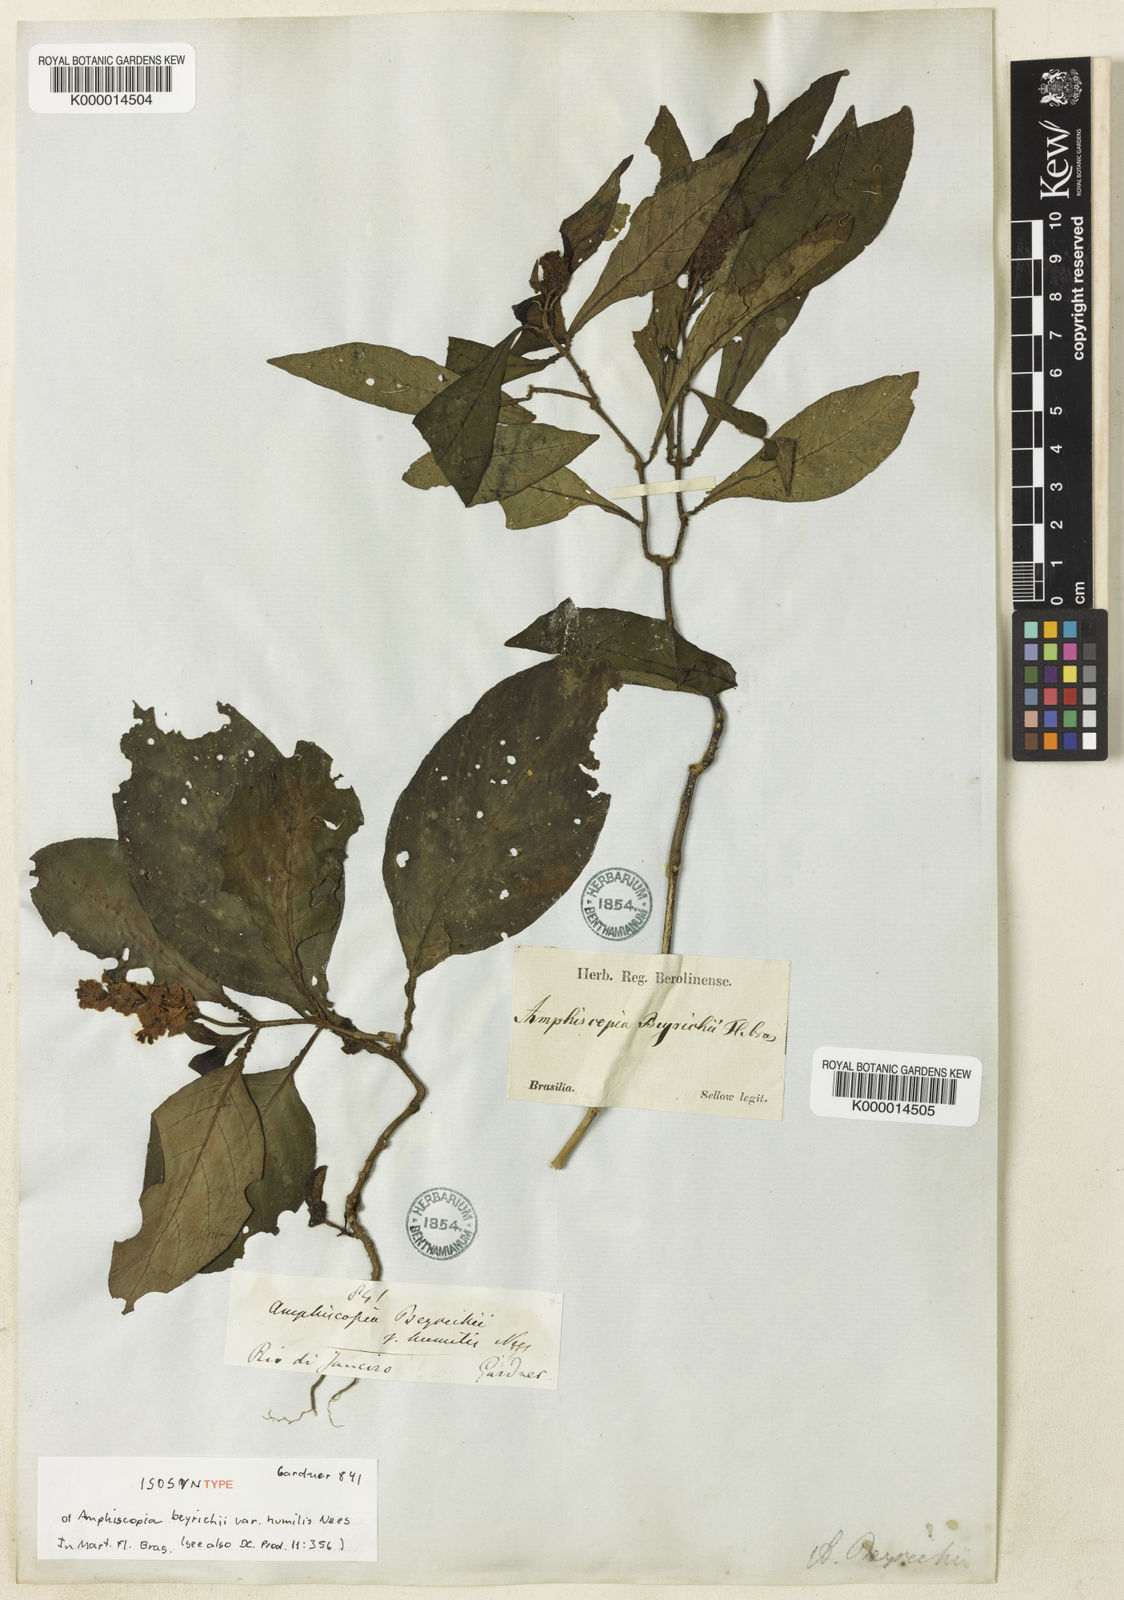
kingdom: Plantae
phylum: Tracheophyta
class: Magnoliopsida
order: Lamiales
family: Acanthaceae
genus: Dianthera
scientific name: Dianthera brasiliensis
